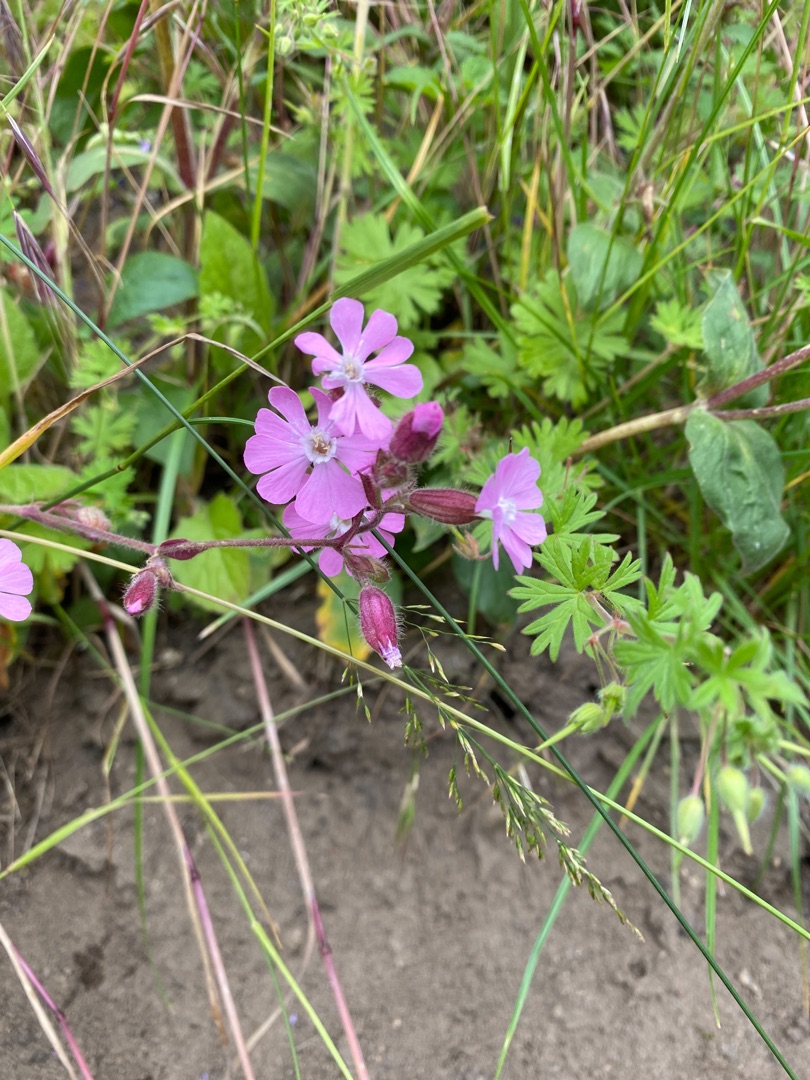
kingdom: Plantae
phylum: Tracheophyta
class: Magnoliopsida
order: Caryophyllales
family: Caryophyllaceae
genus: Silene
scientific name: Silene dioica
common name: Dagpragtstjerne
